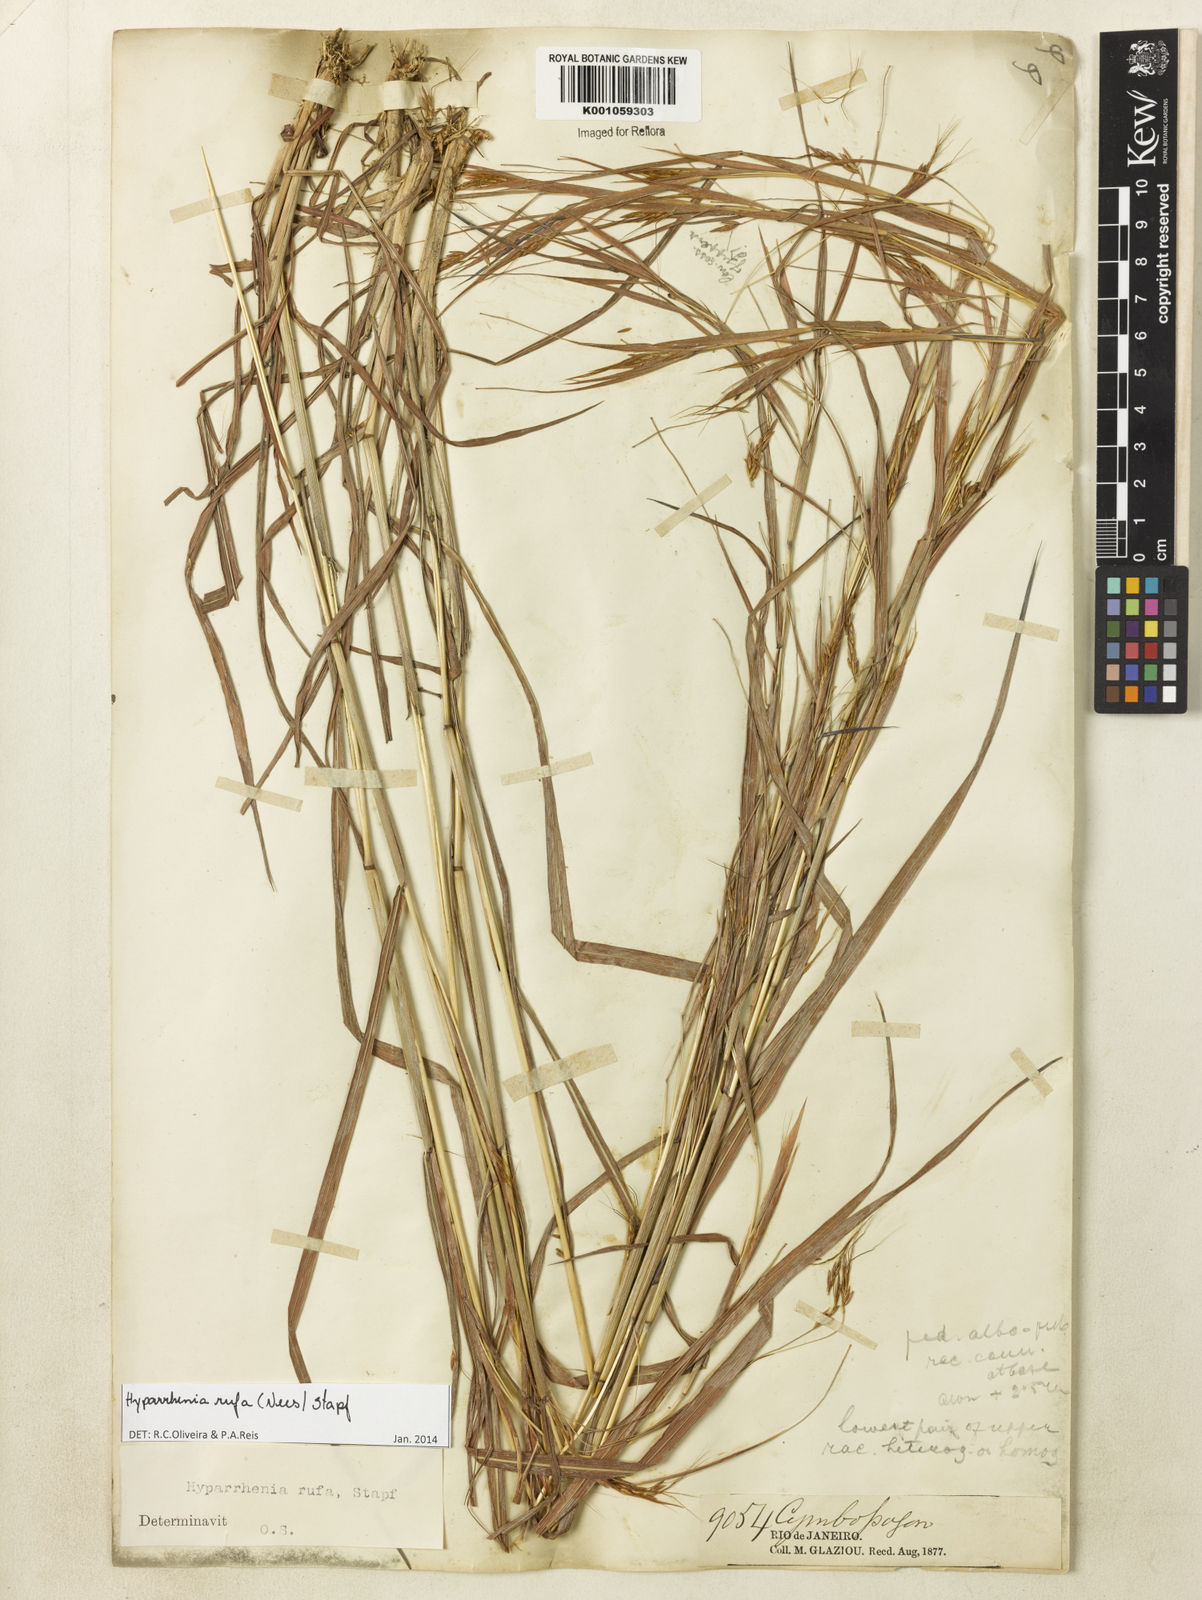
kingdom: Plantae
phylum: Tracheophyta
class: Liliopsida
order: Poales
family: Poaceae
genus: Hyparrhenia
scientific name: Hyparrhenia rufa
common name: Jaraguagrass
